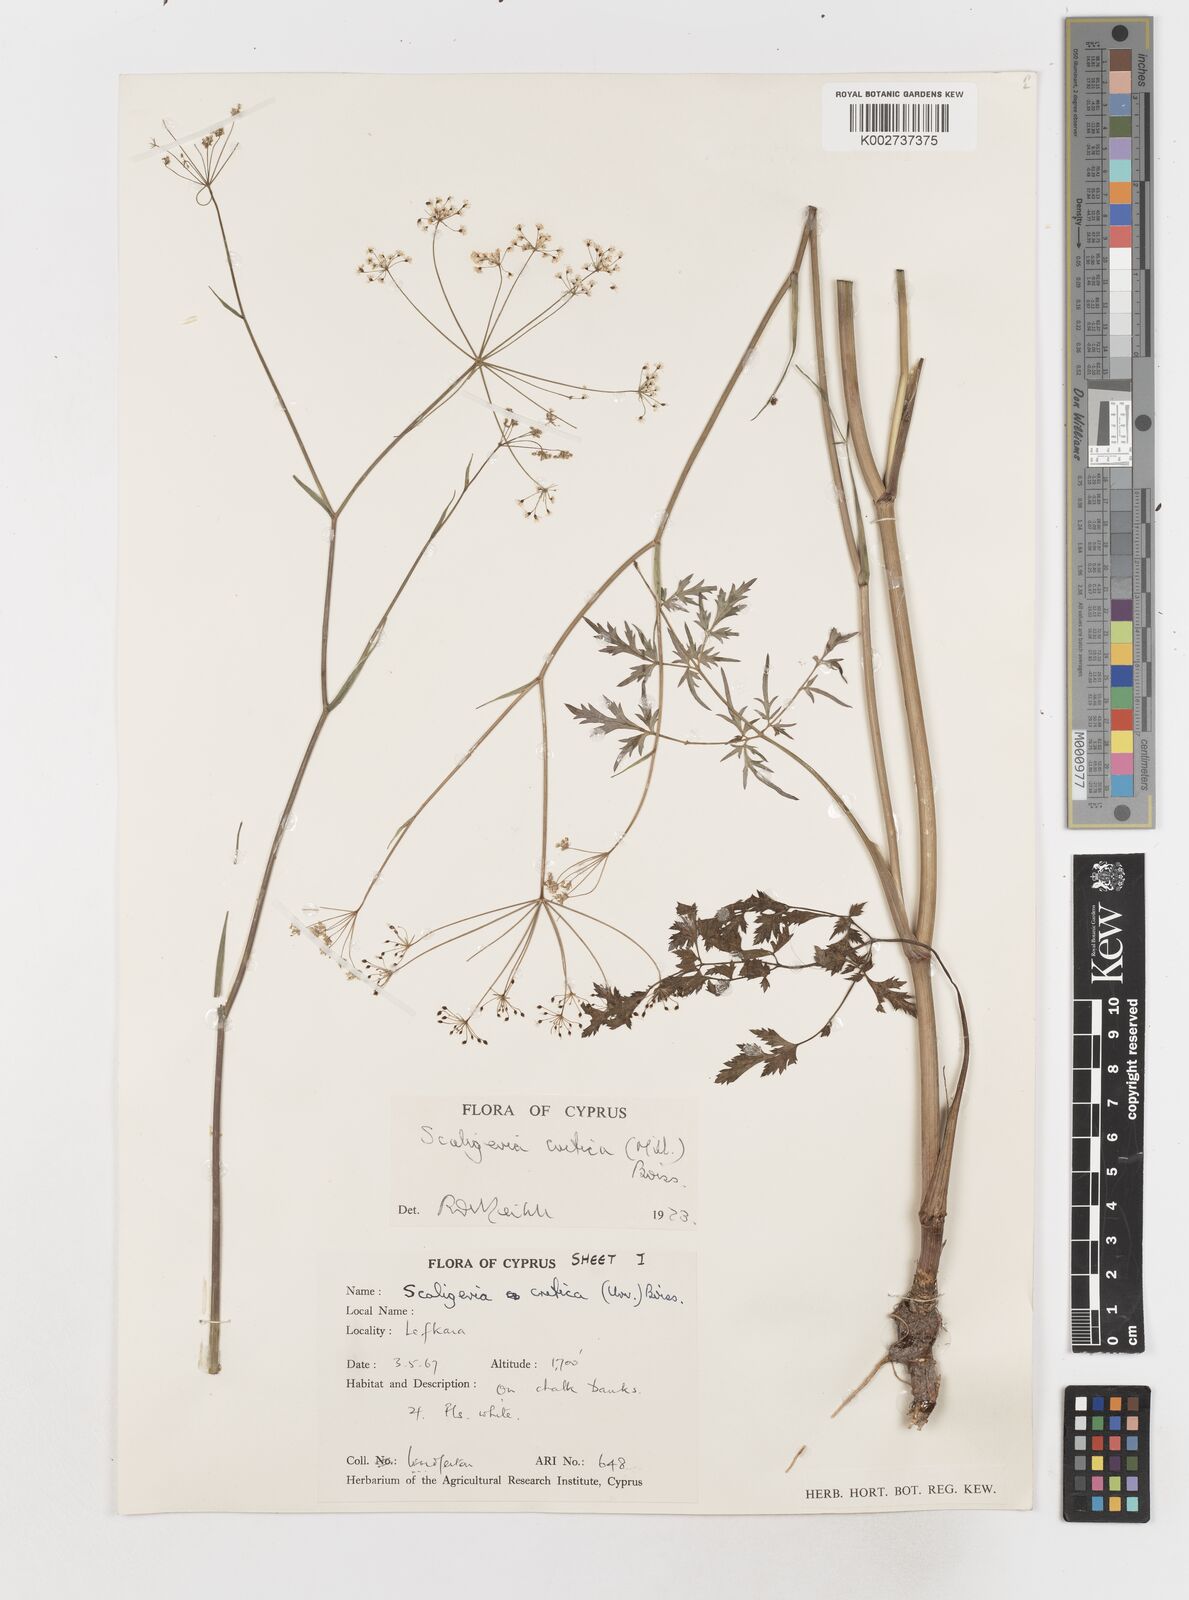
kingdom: Plantae
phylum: Tracheophyta
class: Magnoliopsida
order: Apiales
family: Apiaceae
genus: Scaligeria
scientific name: Scaligeria
